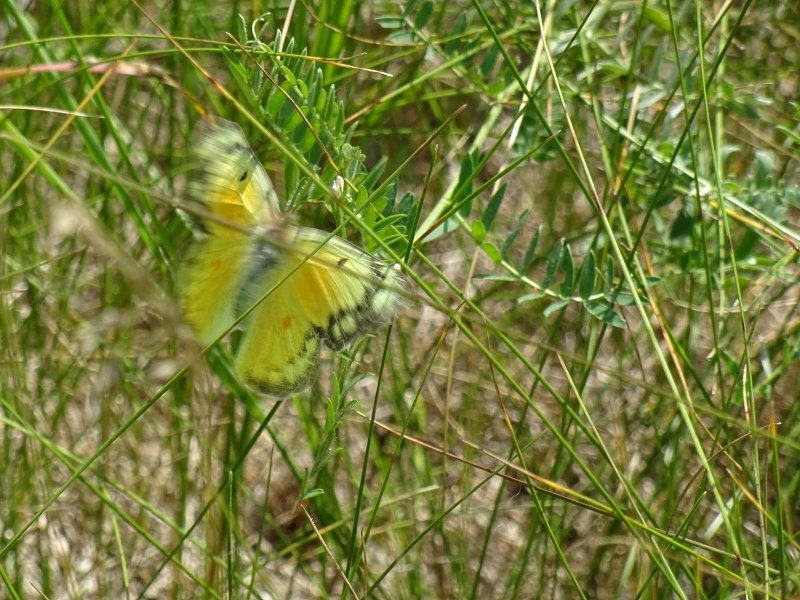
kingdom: Animalia
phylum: Arthropoda
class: Insecta
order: Lepidoptera
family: Pieridae
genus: Colias
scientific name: Colias eurytheme
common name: Orange Sulphur
